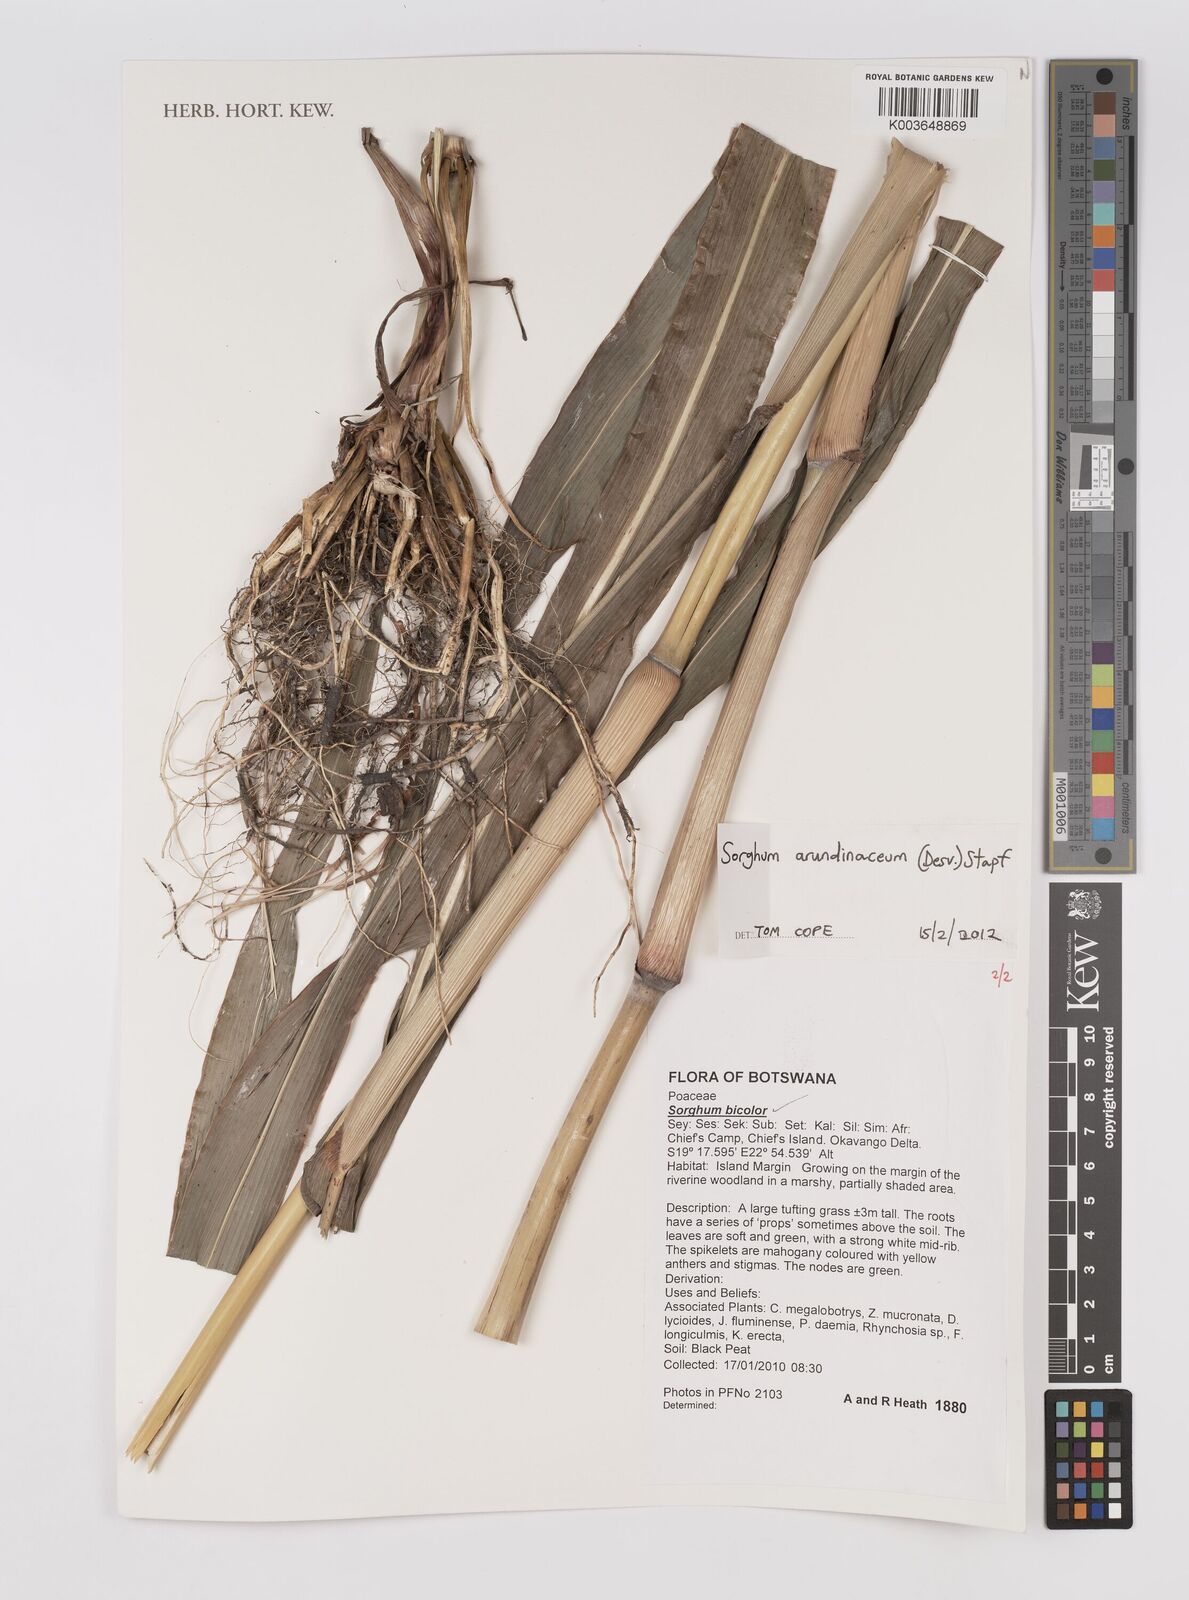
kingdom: Plantae
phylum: Tracheophyta
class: Liliopsida
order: Poales
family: Poaceae
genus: Sorghum
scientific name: Sorghum arundinaceum
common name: Sorghum
